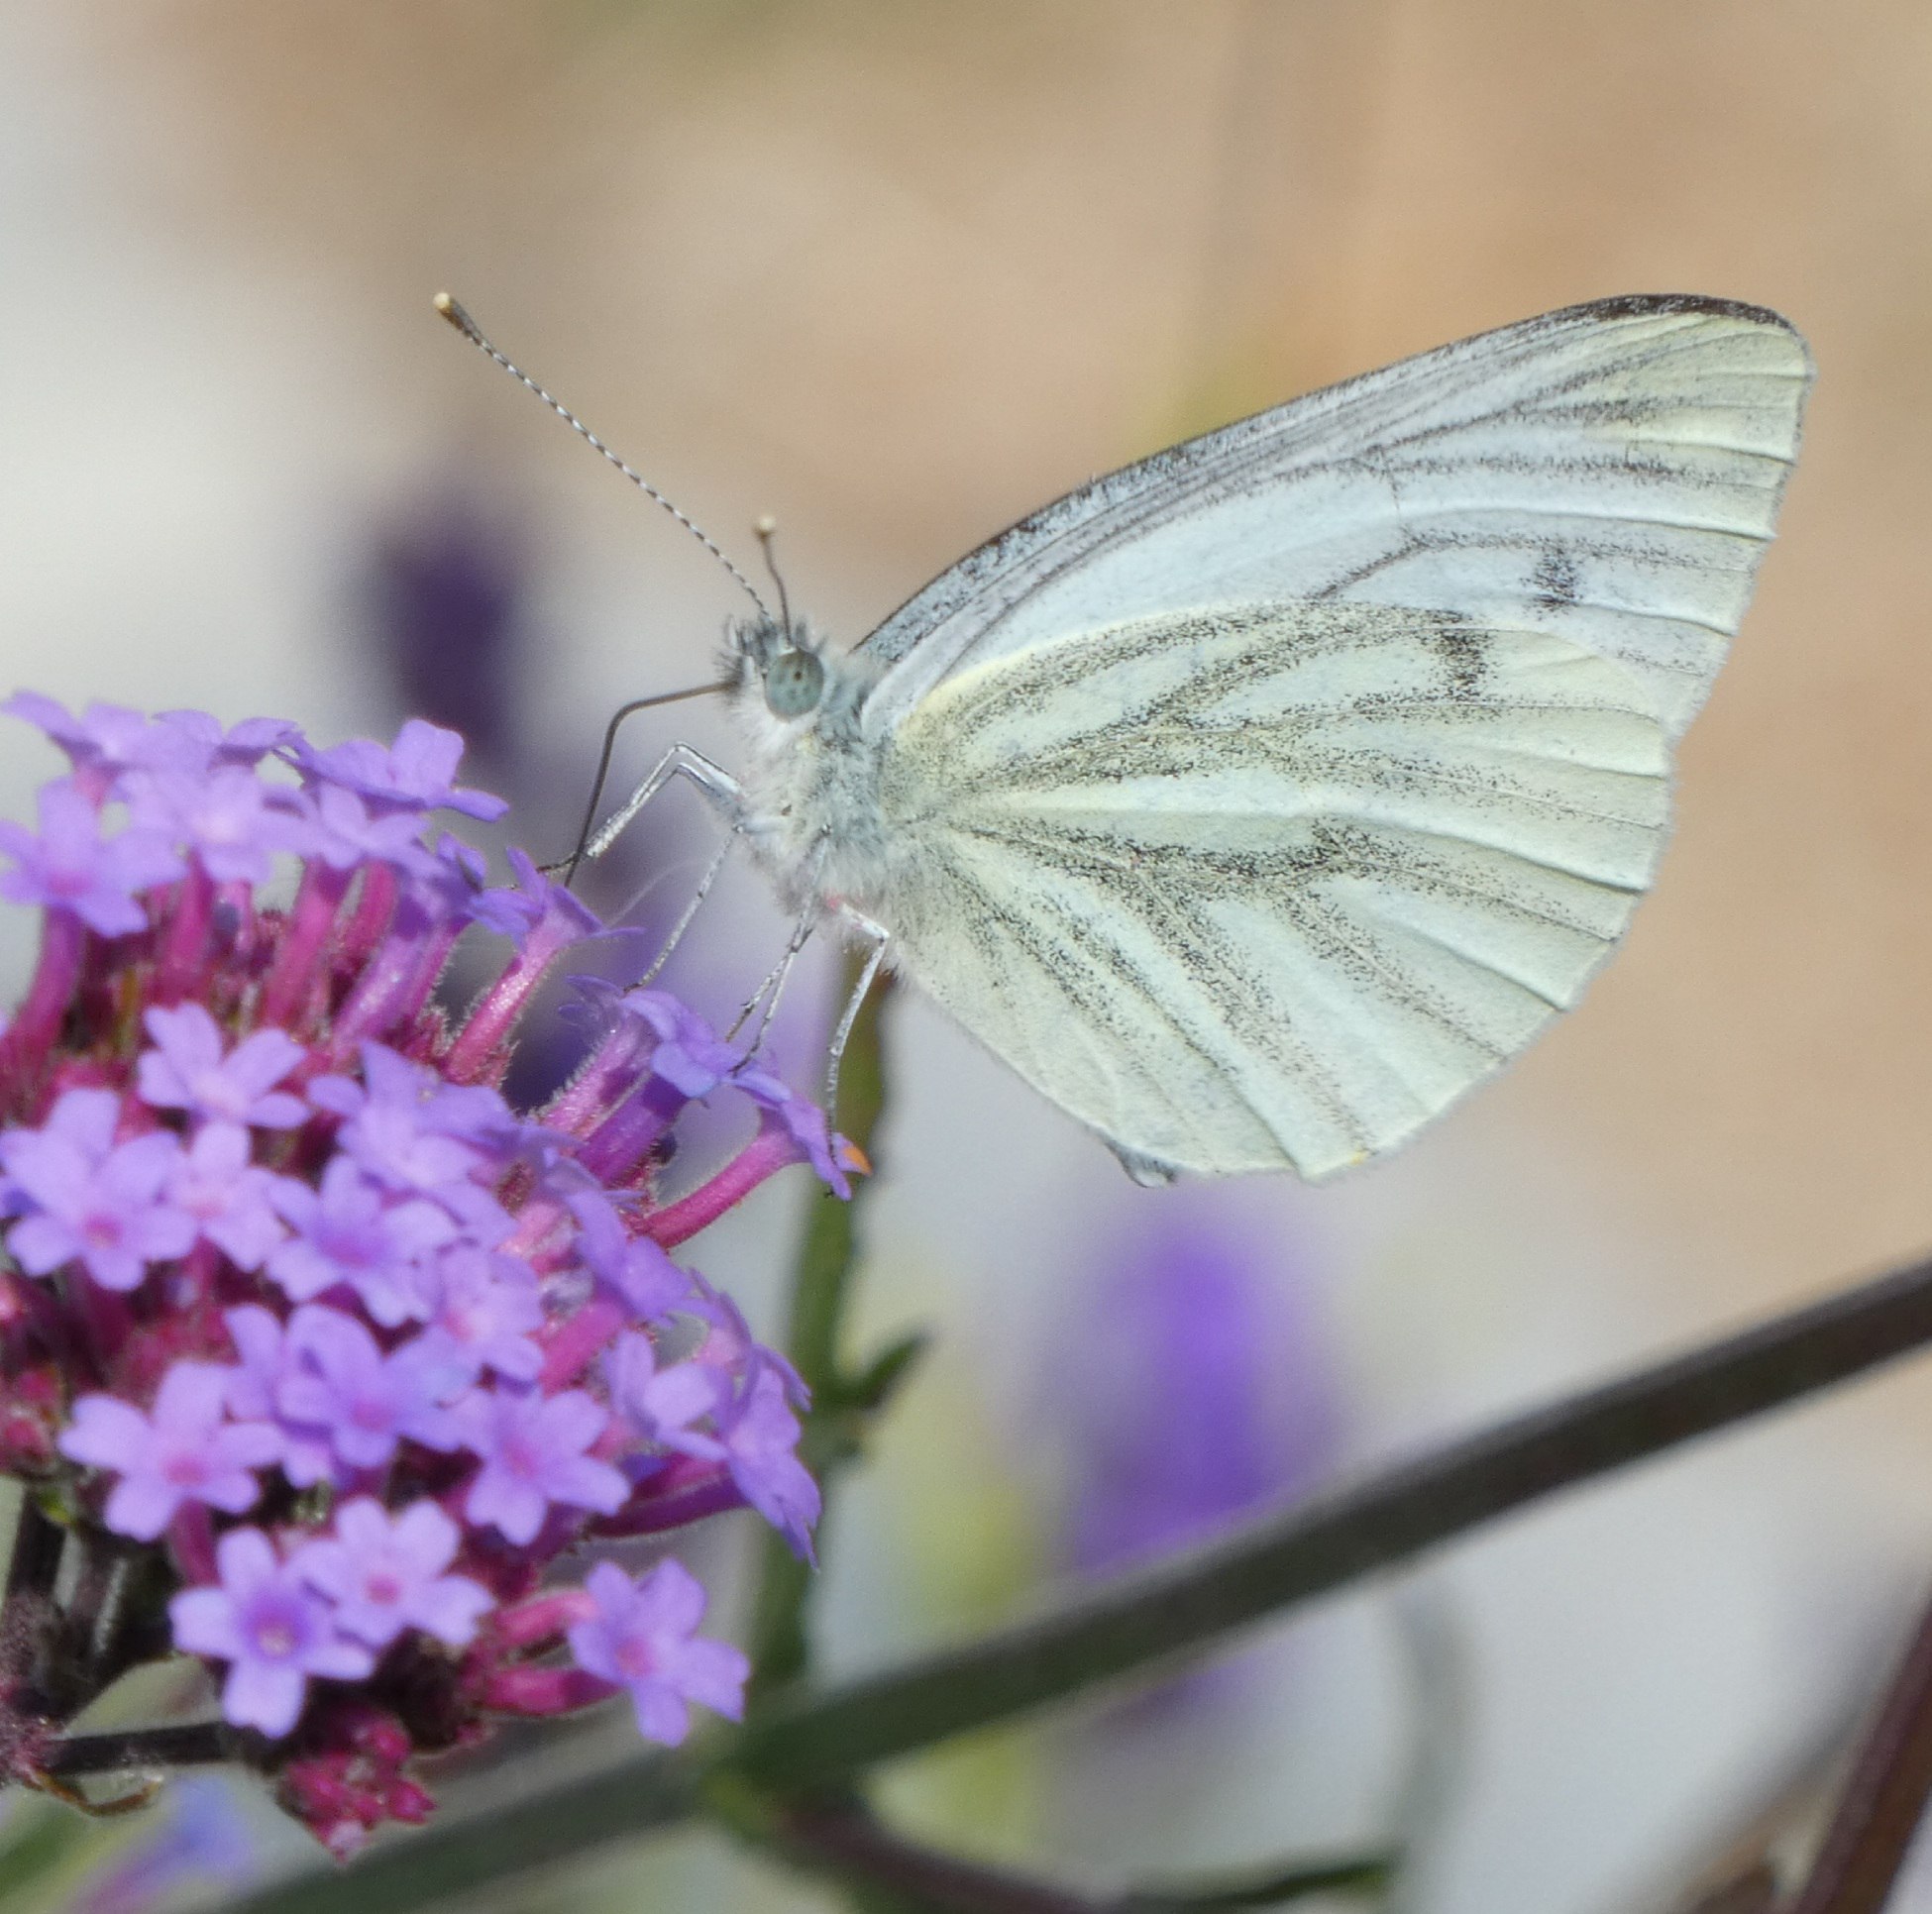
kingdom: Animalia
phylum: Arthropoda
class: Insecta
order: Lepidoptera
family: Pieridae
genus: Pieris
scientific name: Pieris napi
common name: Grønåret kålsommerfugl
